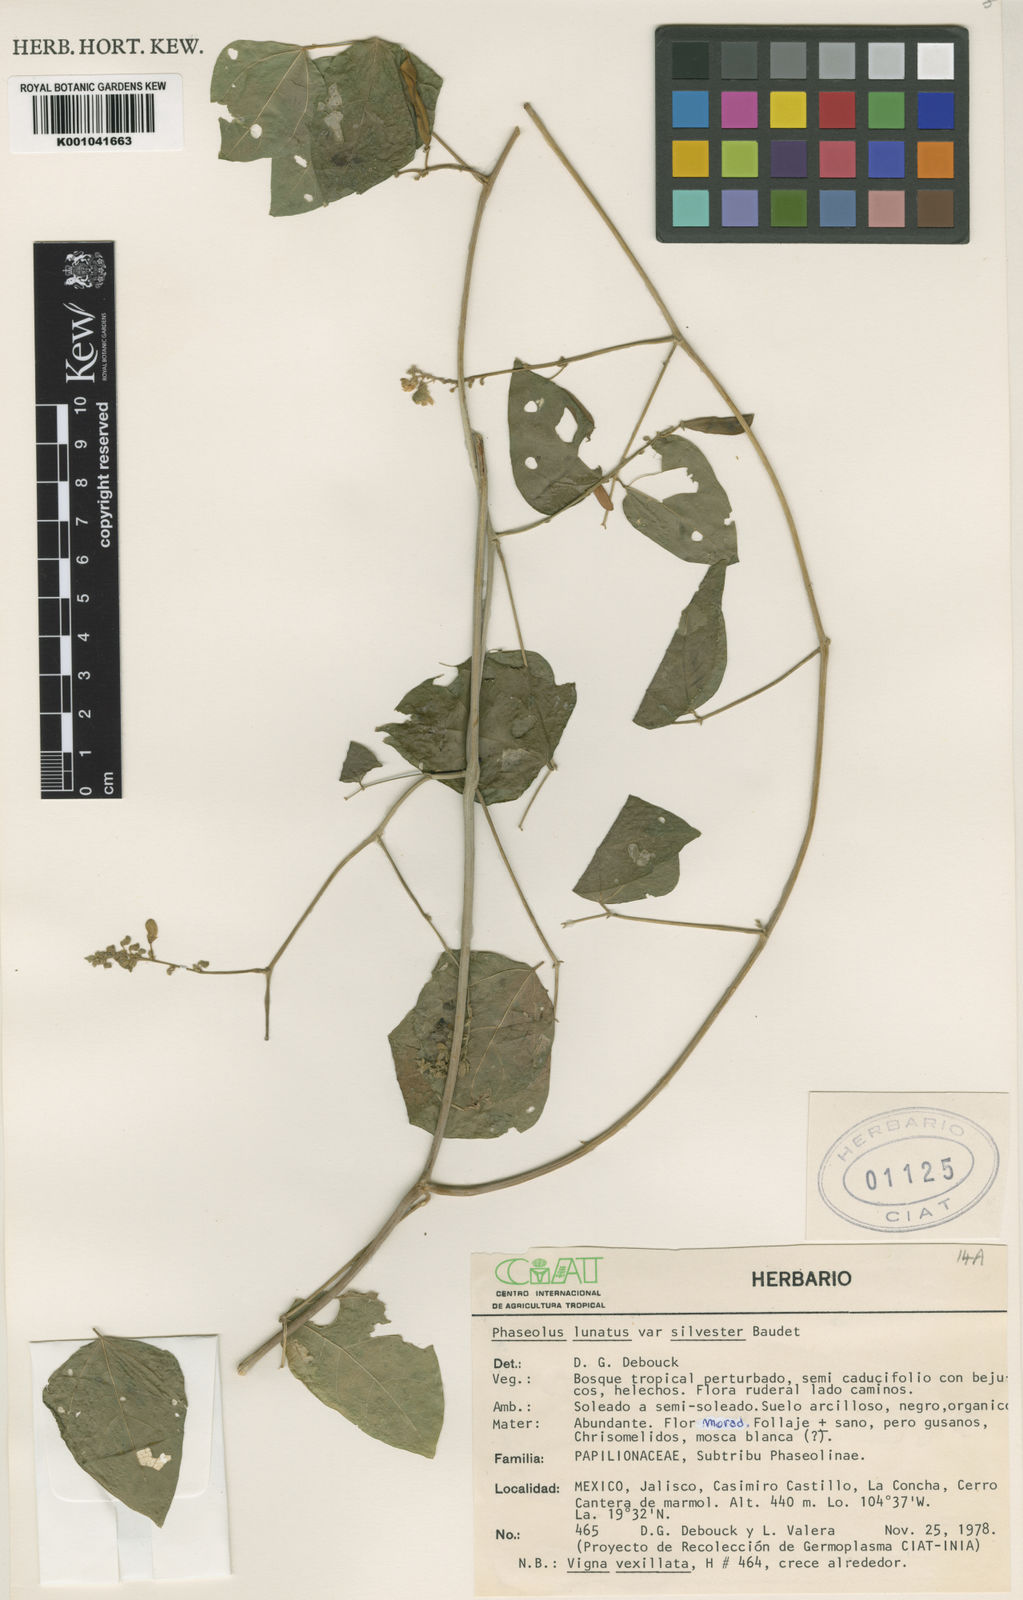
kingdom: Plantae
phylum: Tracheophyta
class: Magnoliopsida
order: Fabales
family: Fabaceae
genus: Phaseolus
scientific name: Phaseolus lunatus
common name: Sieva bean
